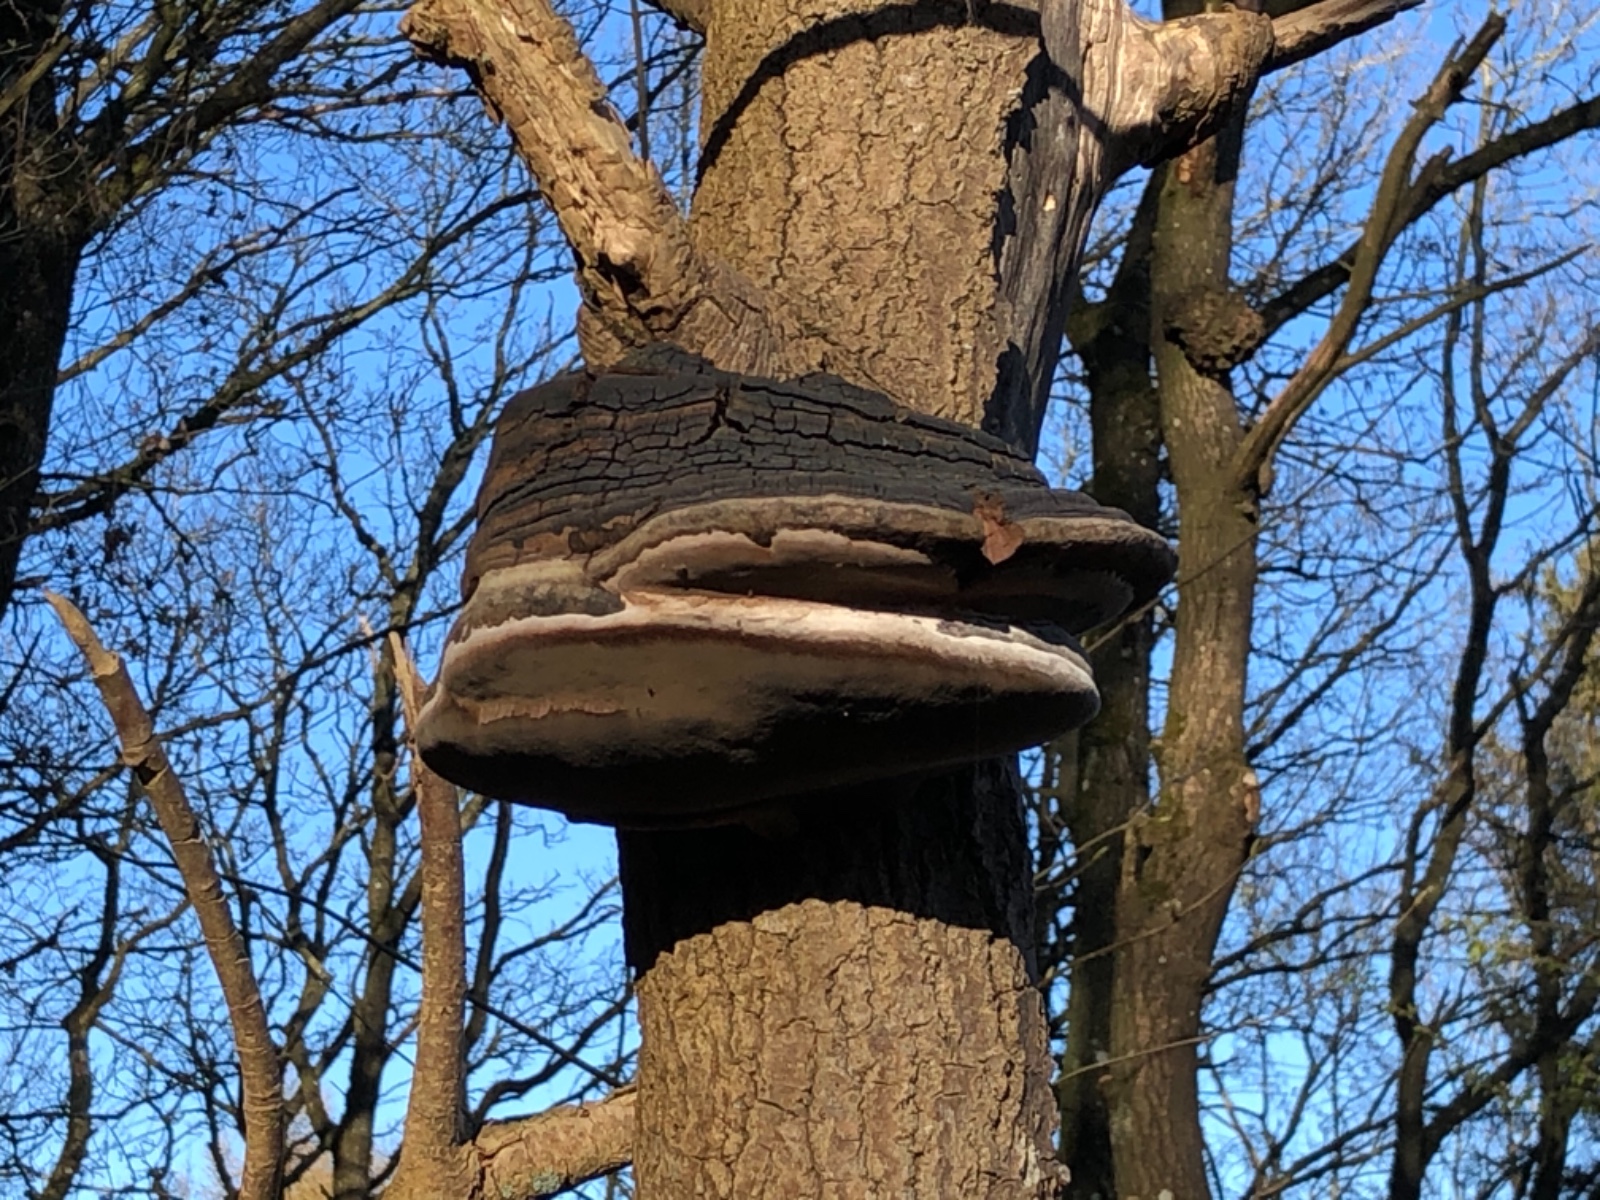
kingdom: Fungi
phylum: Basidiomycota
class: Agaricomycetes
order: Hymenochaetales
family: Hymenochaetaceae
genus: Phellinus
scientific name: Phellinus tremulae
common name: aspe-ildporesvamp
